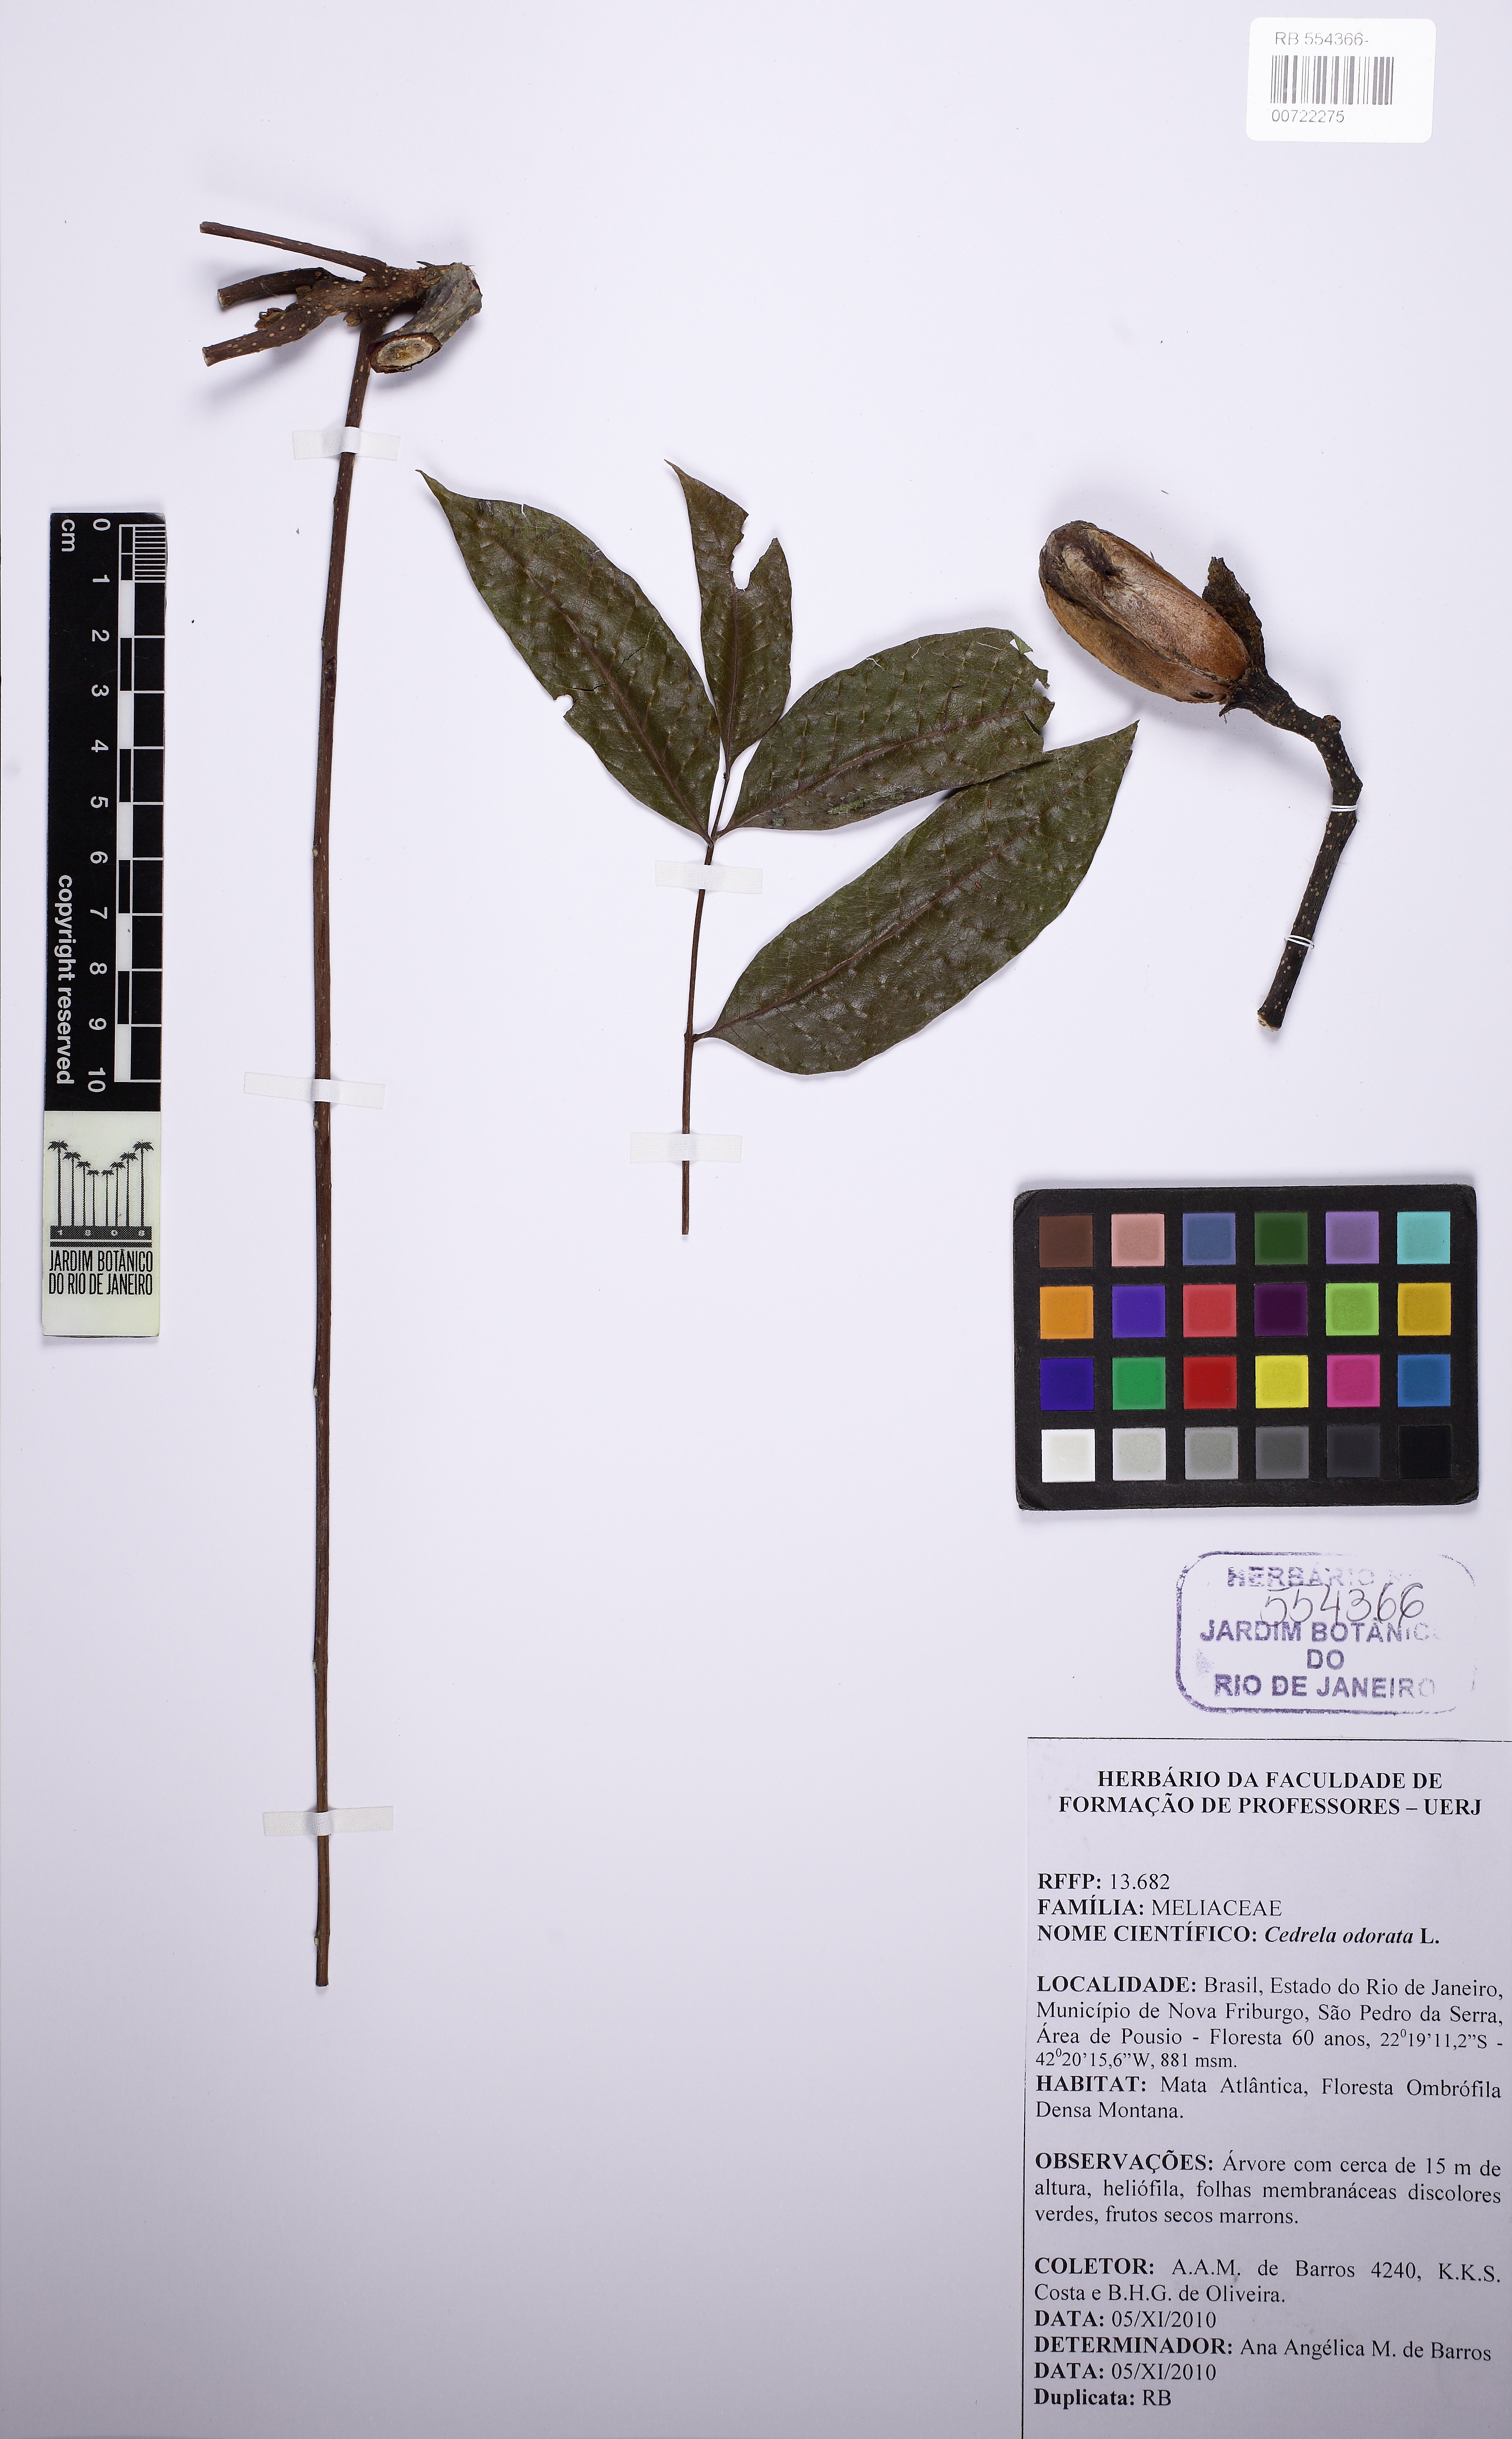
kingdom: Plantae
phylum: Tracheophyta
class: Magnoliopsida
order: Sapindales
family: Meliaceae
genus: Cedrela
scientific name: Cedrela odorata
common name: Red cedar
